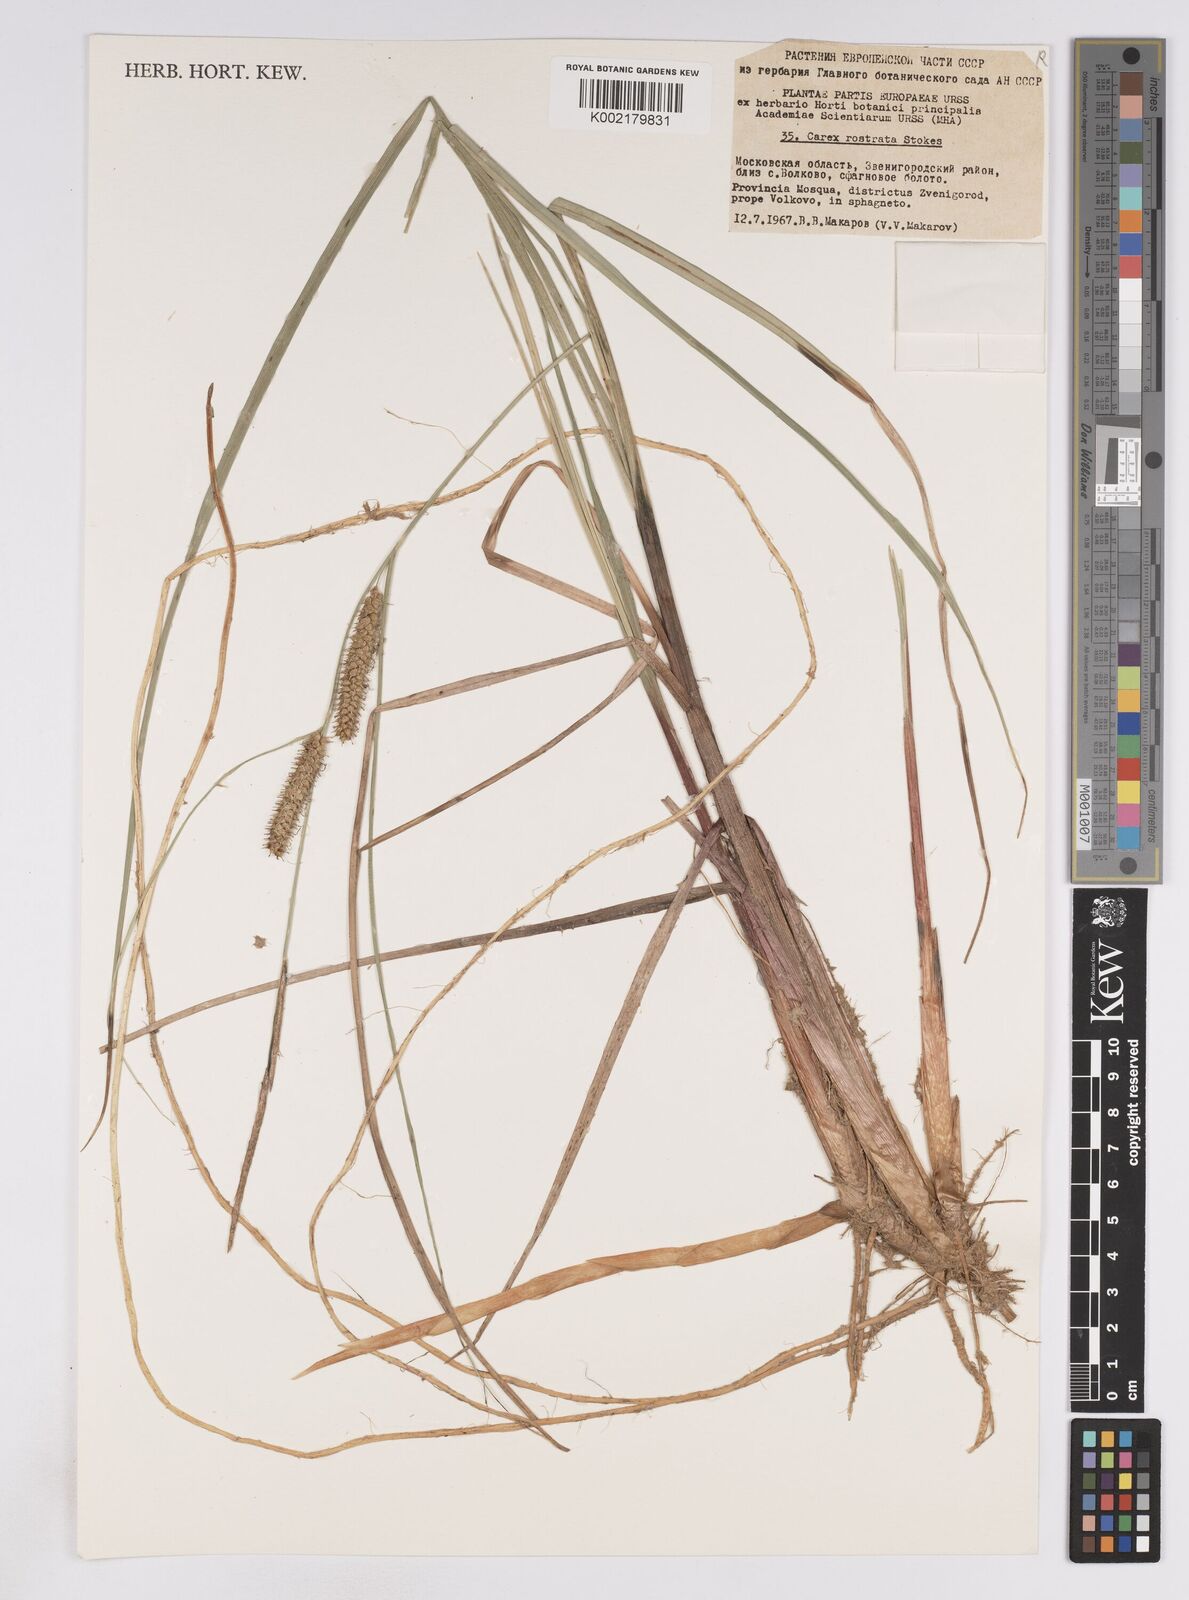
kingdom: Plantae
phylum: Tracheophyta
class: Liliopsida
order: Poales
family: Cyperaceae
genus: Carex
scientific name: Carex rostrata
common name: Bottle sedge
